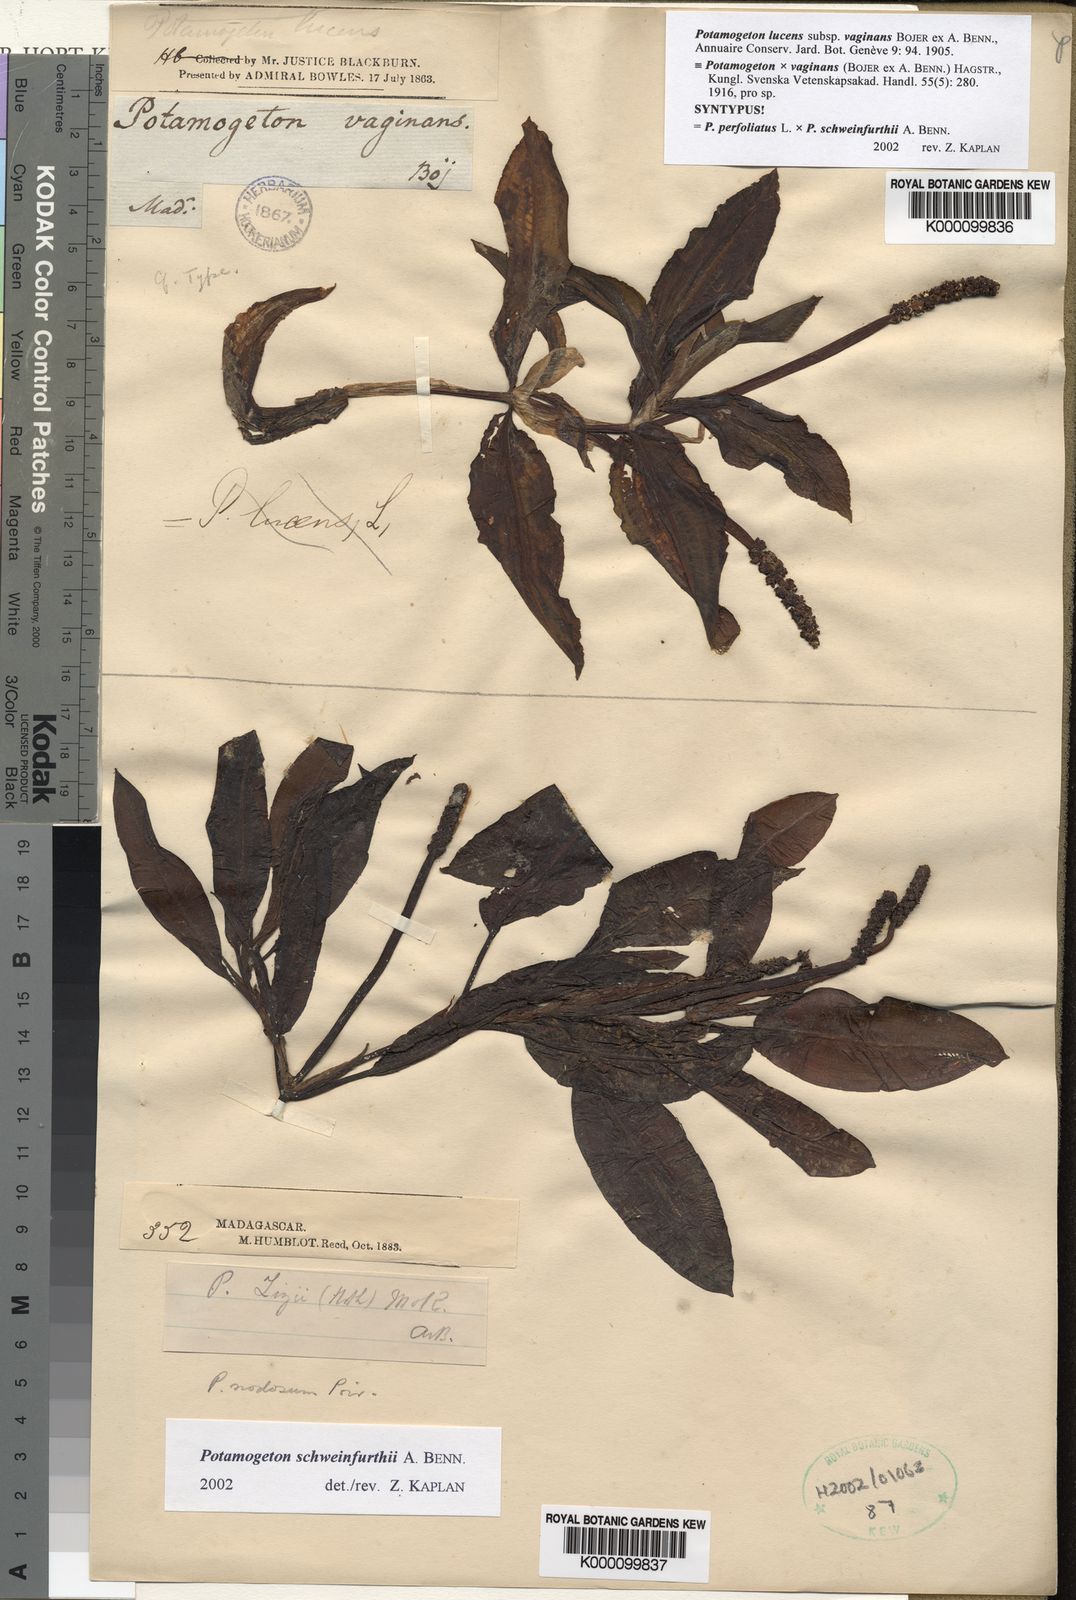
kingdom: Plantae
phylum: Tracheophyta
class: Liliopsida
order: Alismatales
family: Potamogetonaceae
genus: Potamogeton
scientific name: Potamogeton
